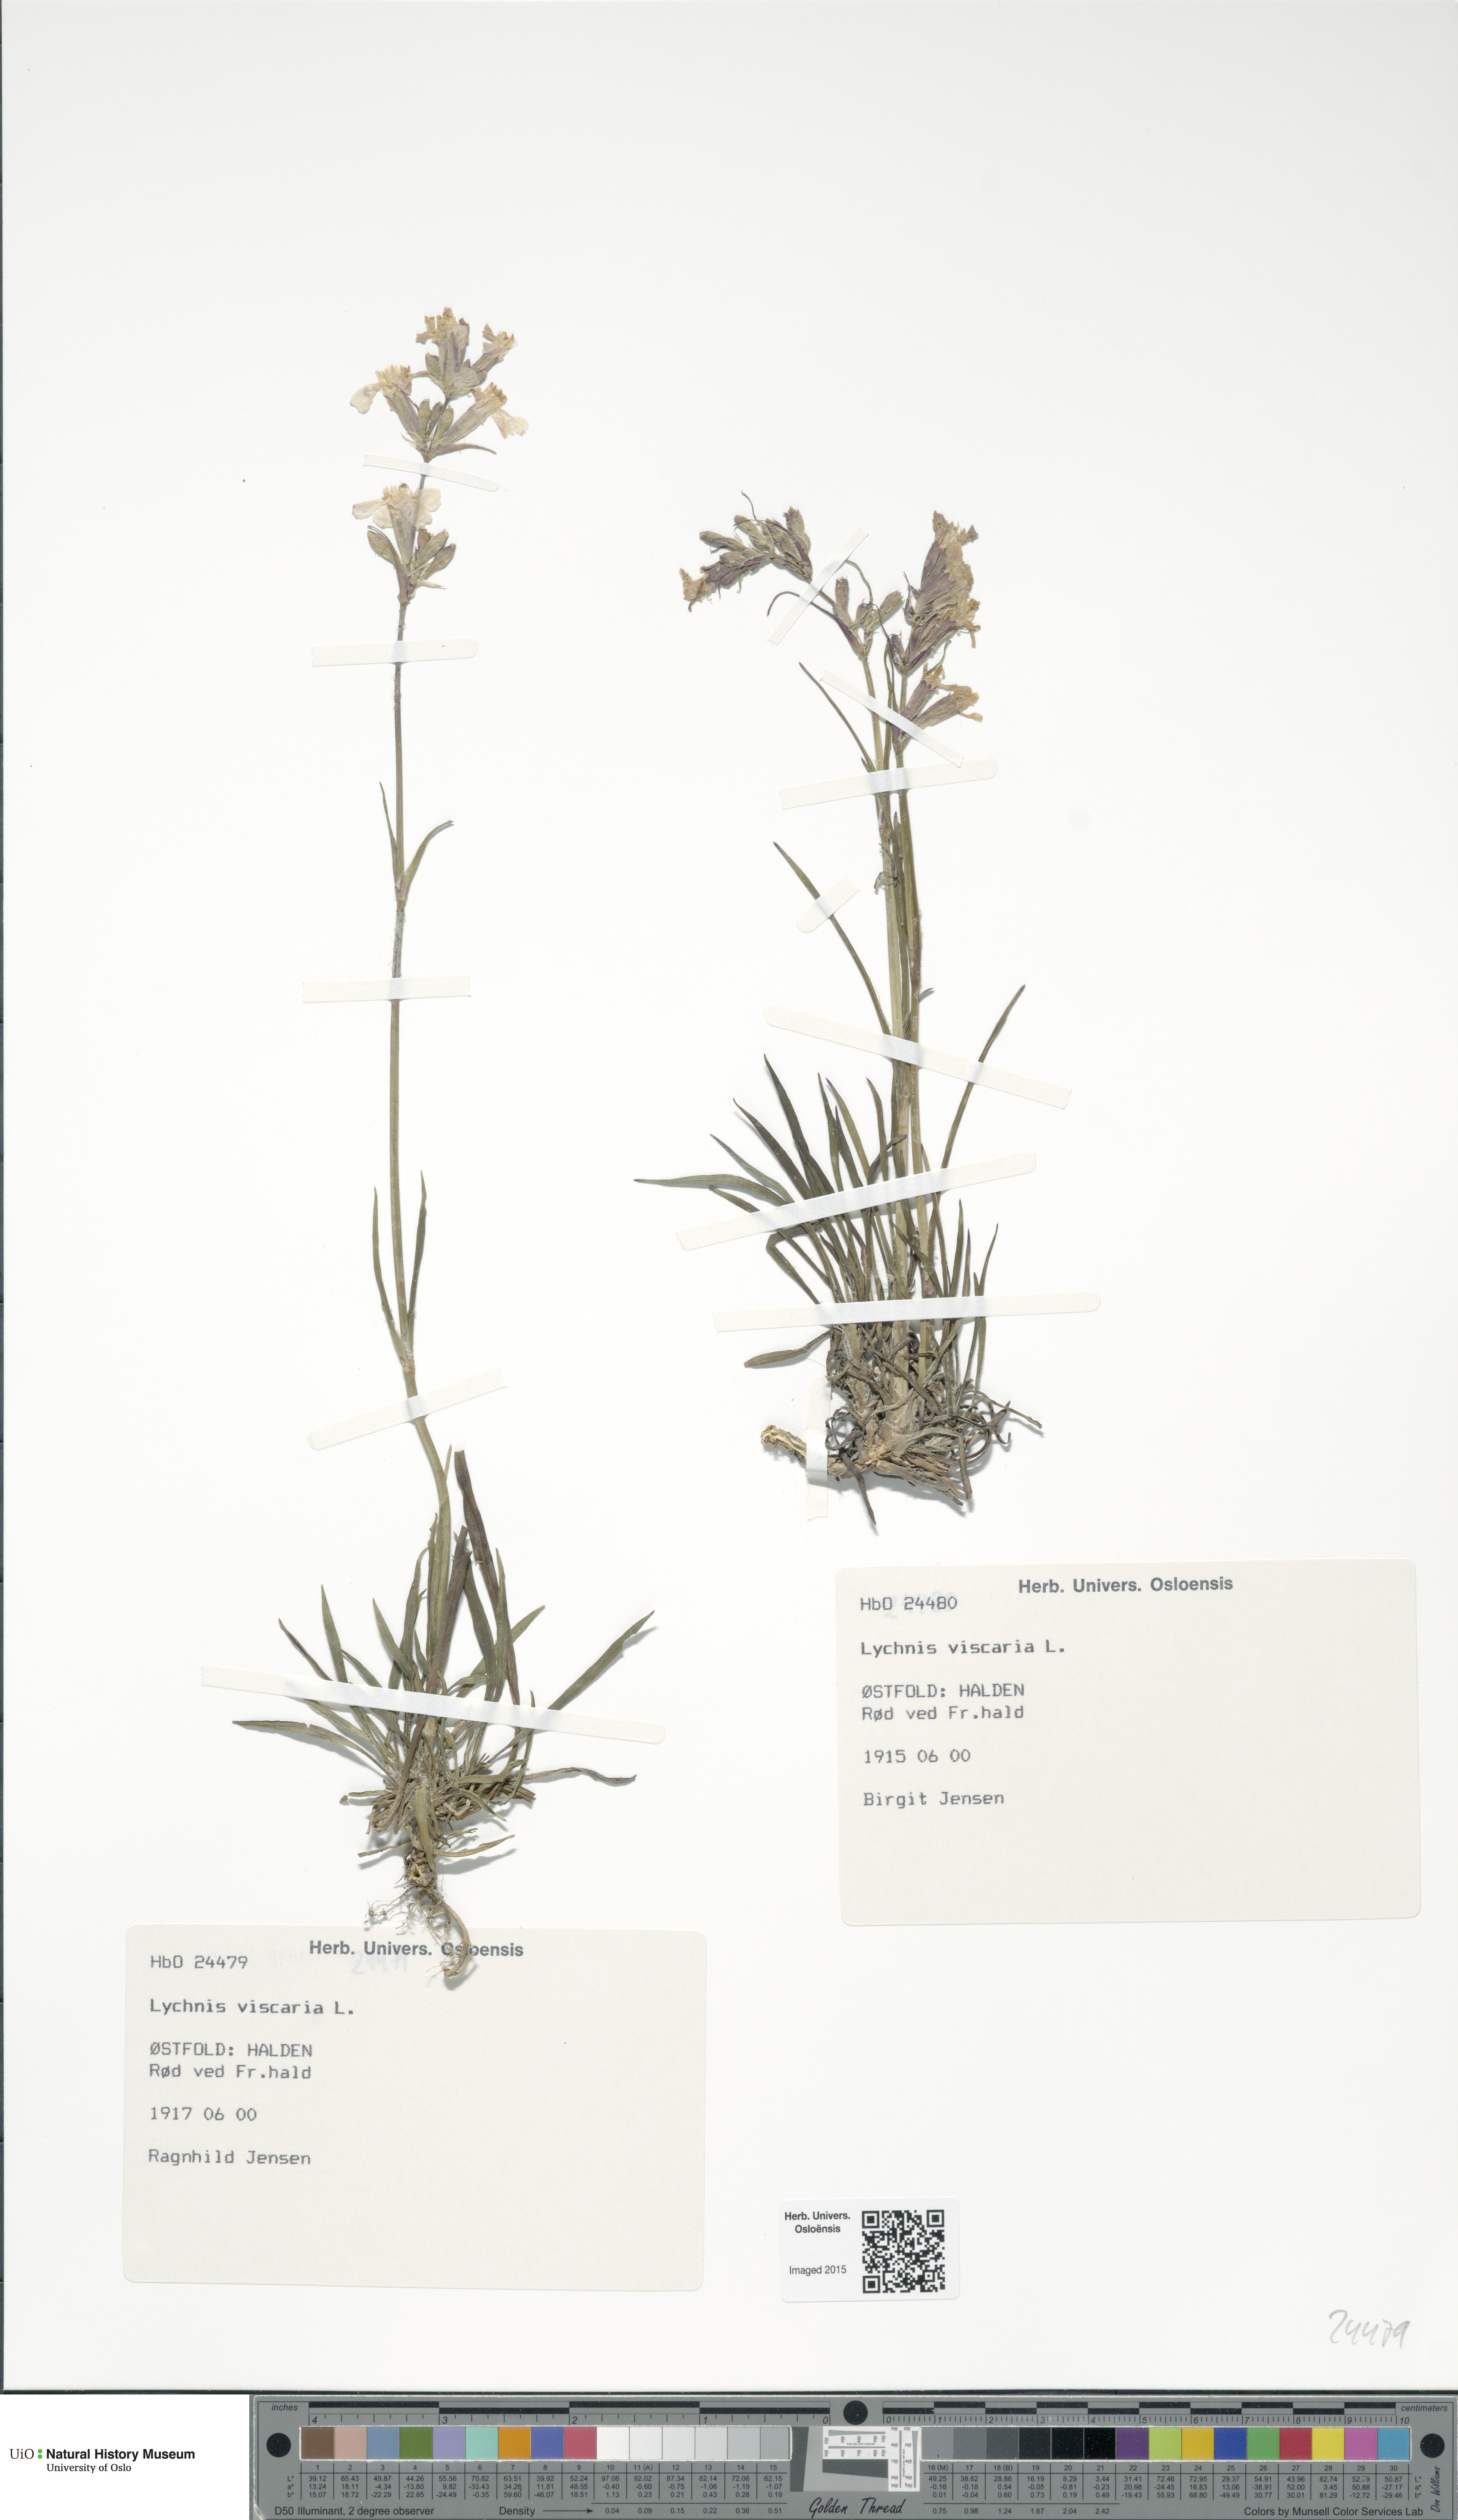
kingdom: Plantae
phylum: Tracheophyta
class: Magnoliopsida
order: Caryophyllales
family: Caryophyllaceae
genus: Viscaria
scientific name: Viscaria vulgaris
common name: Clammy campion
